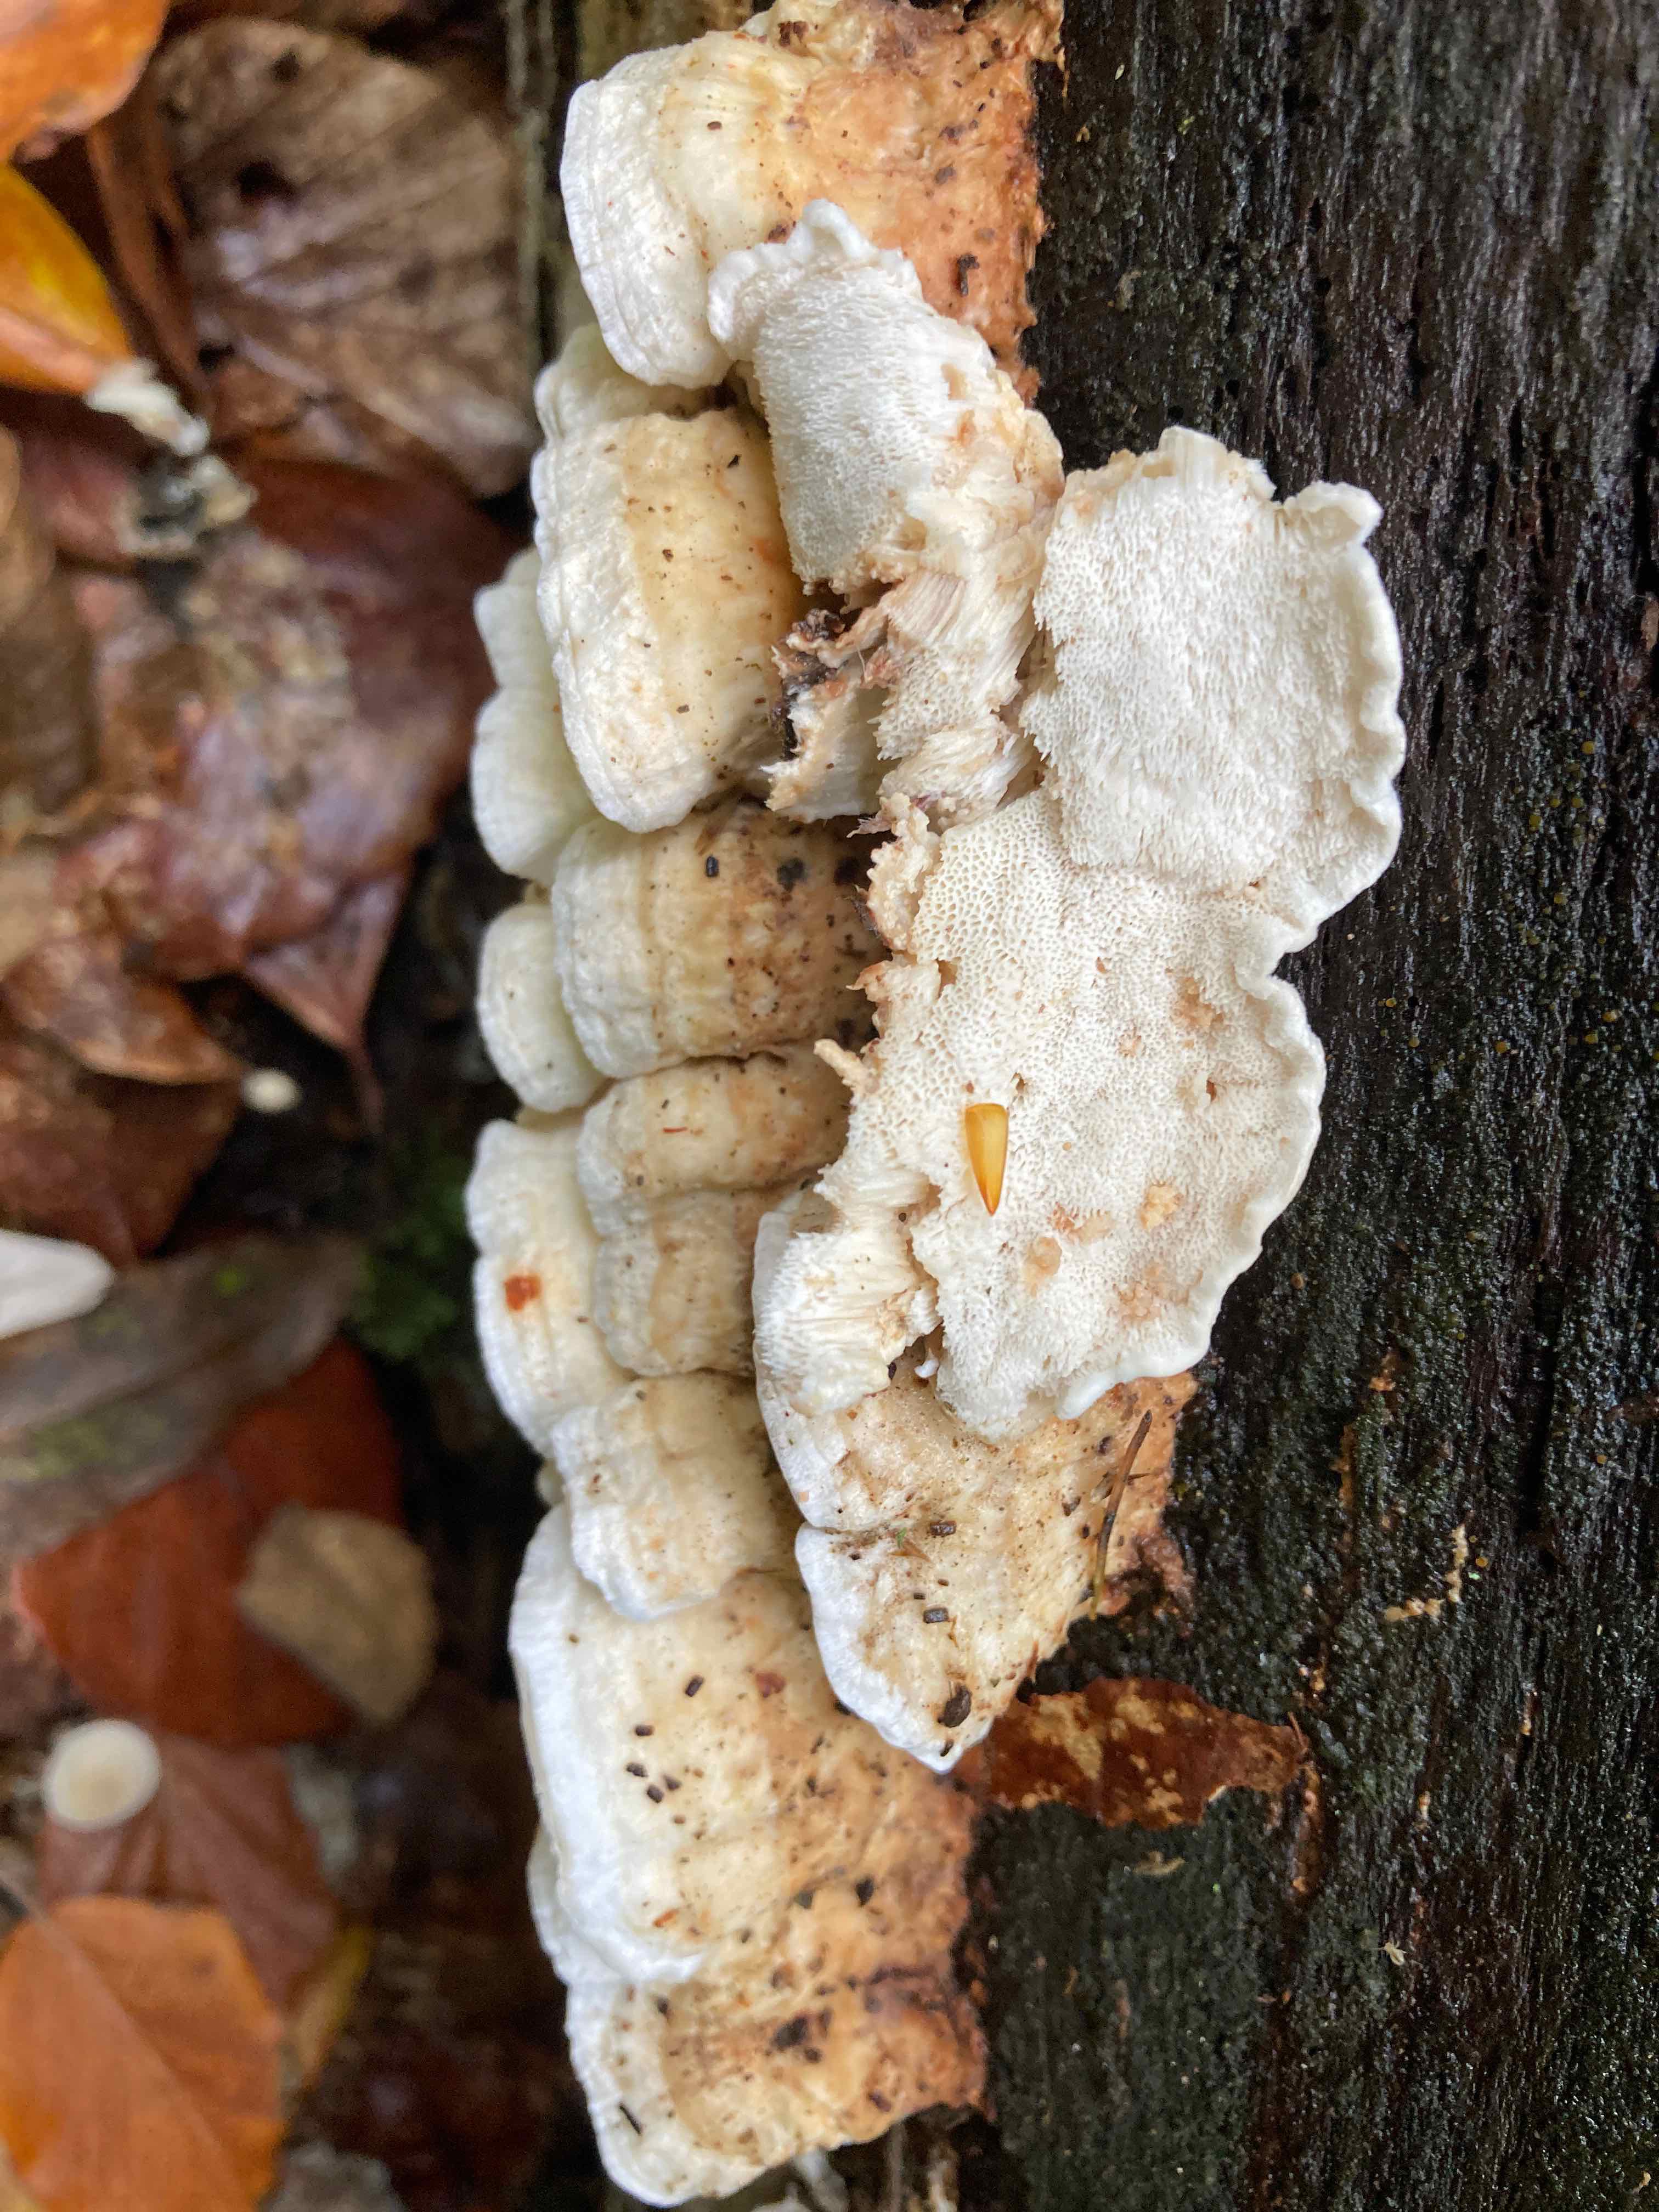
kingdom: Fungi
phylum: Basidiomycota
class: Agaricomycetes
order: Polyporales
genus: Fuscopostia
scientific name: Fuscopostia leucomallella
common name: gulbrun kødporesvamp
